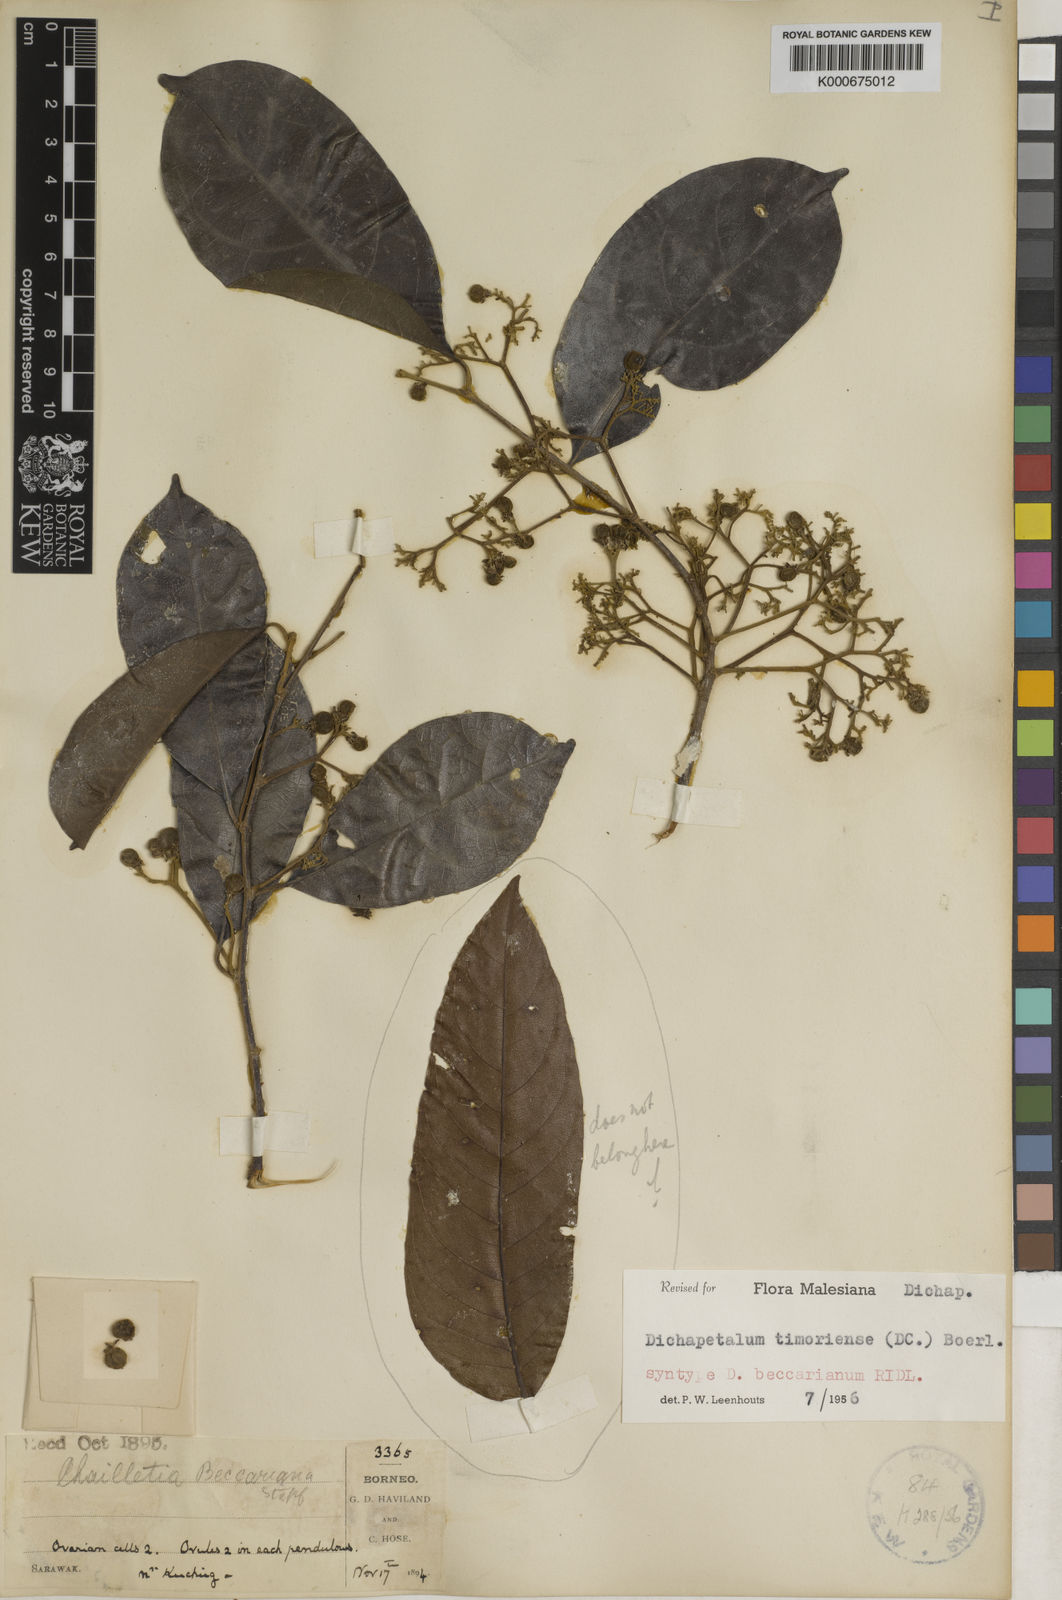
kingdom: Plantae
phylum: Tracheophyta
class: Magnoliopsida
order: Malpighiales
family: Dichapetalaceae
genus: Dichapetalum
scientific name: Dichapetalum timoriense
